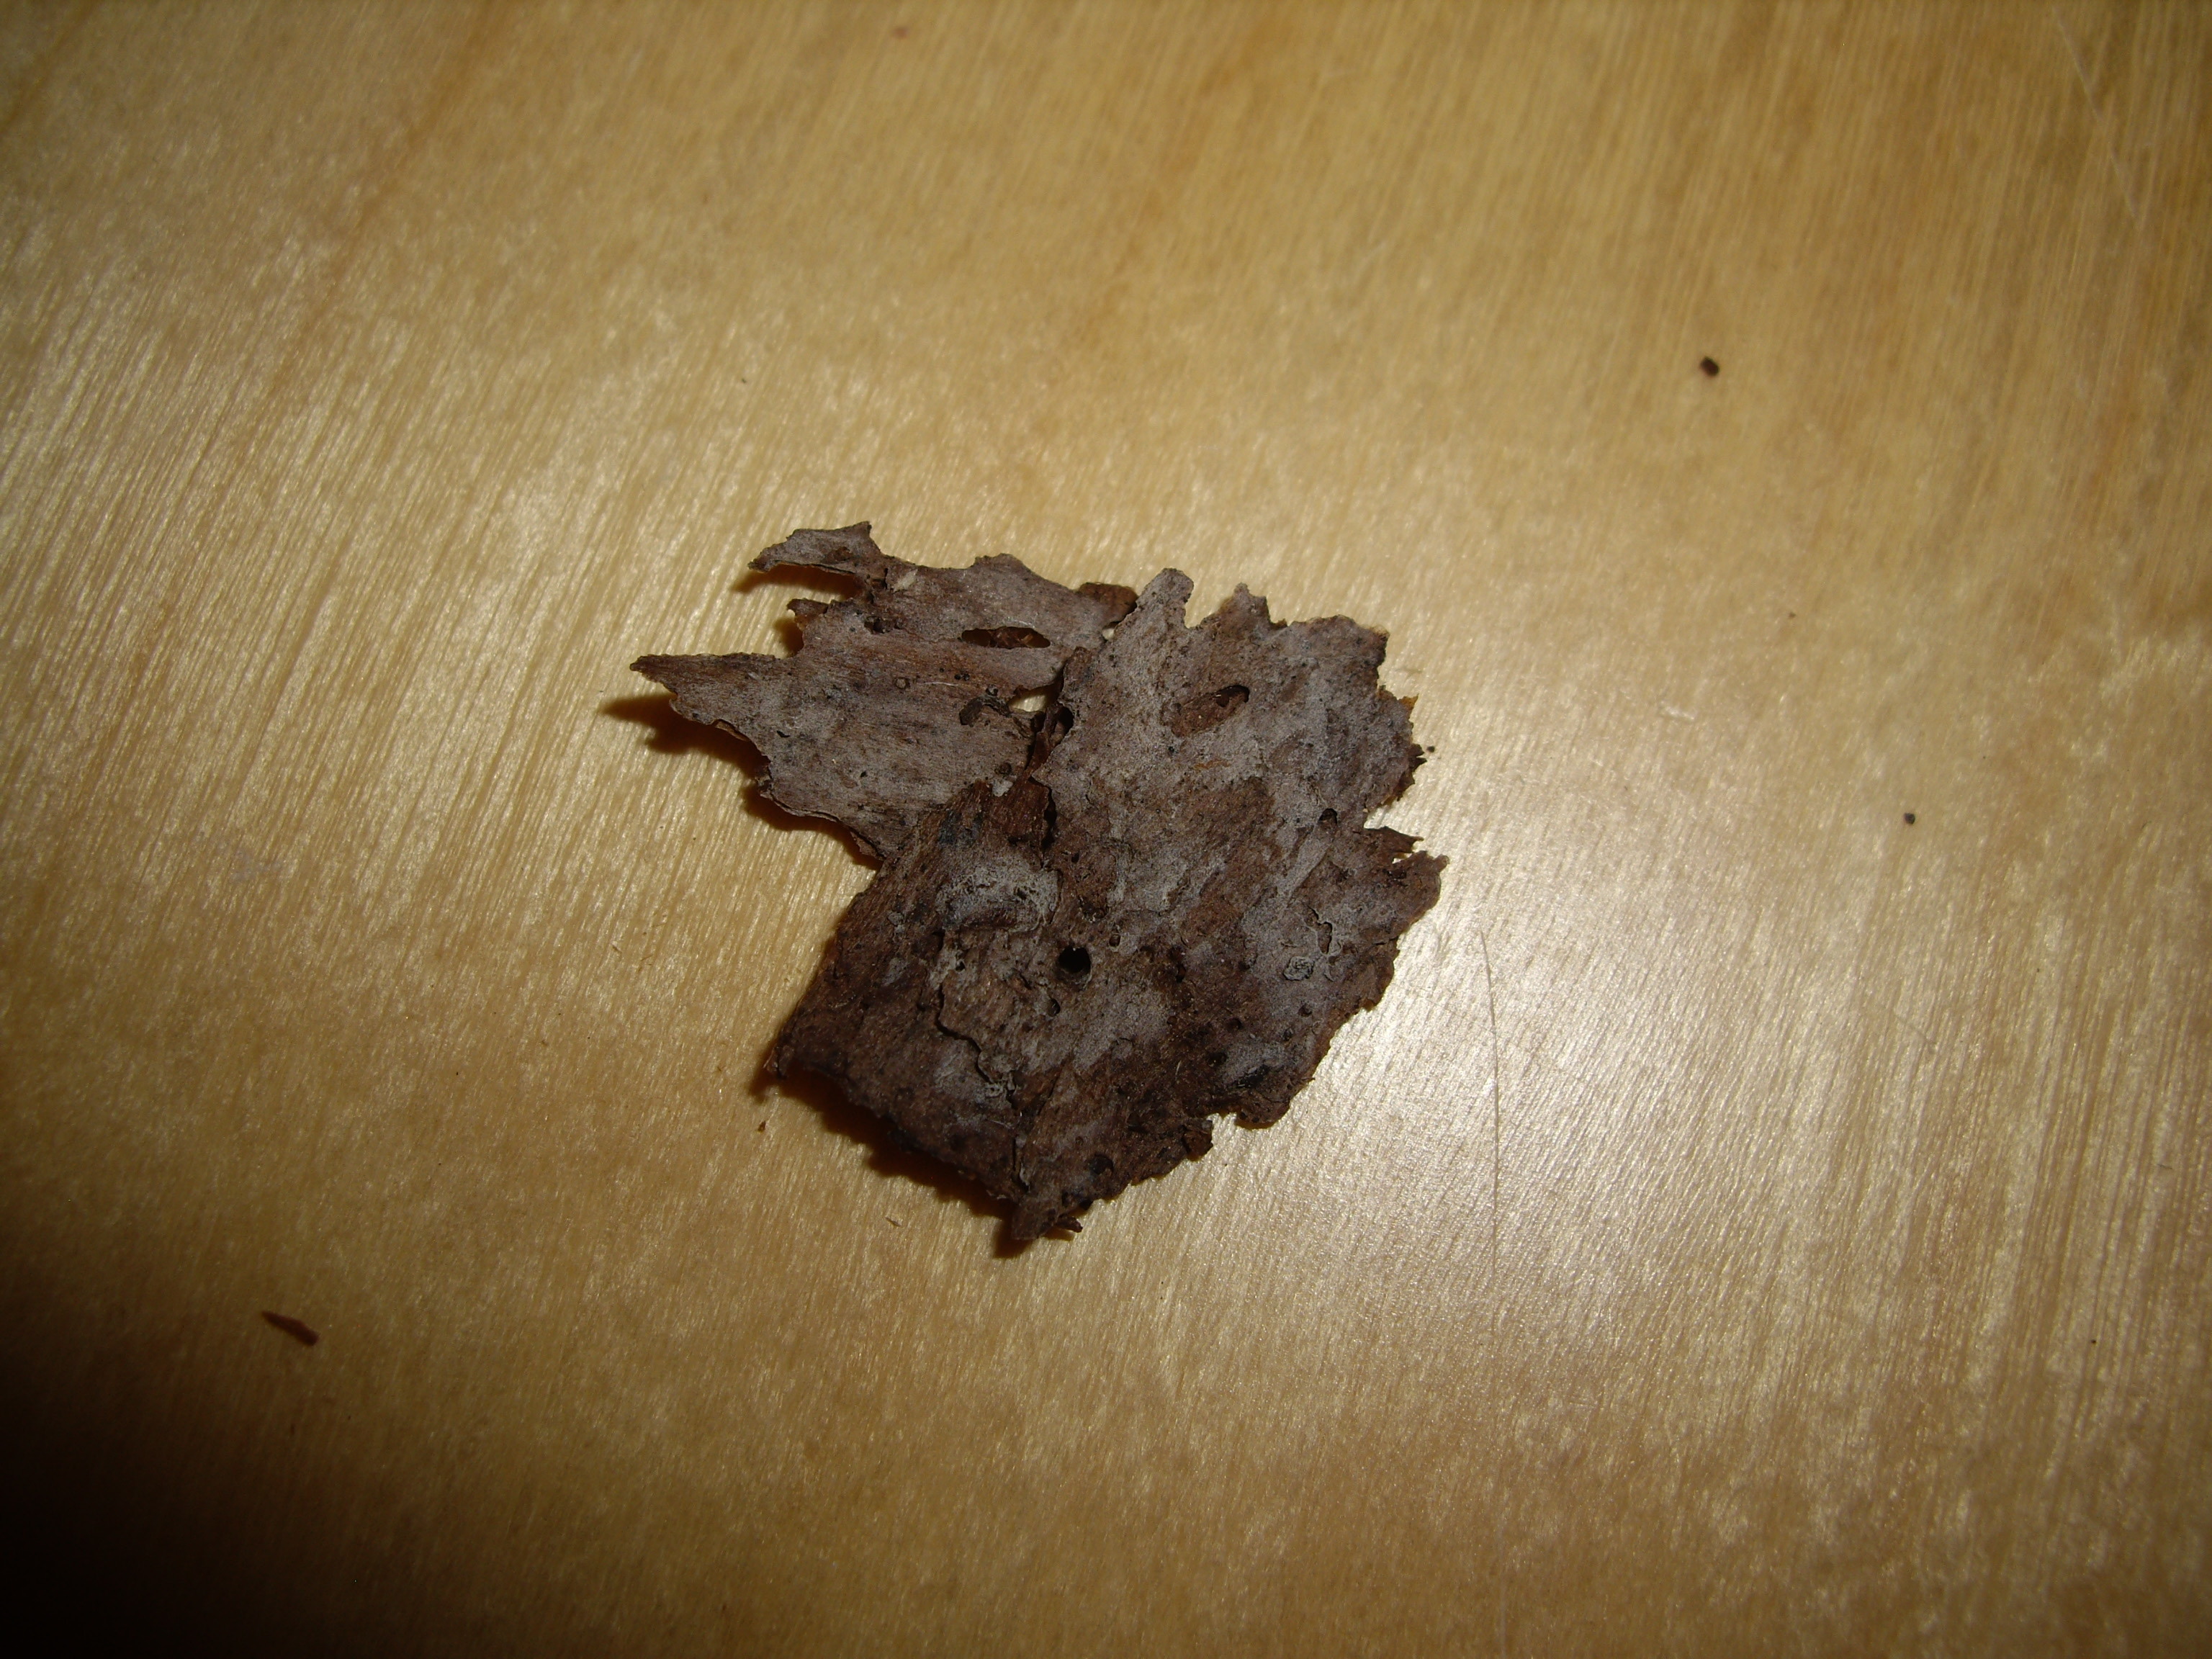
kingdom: Fungi
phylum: Basidiomycota
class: Agaricomycetes
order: Cantharellales
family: Hydnaceae
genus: Sistotrema
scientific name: Sistotrema oblongisporum
